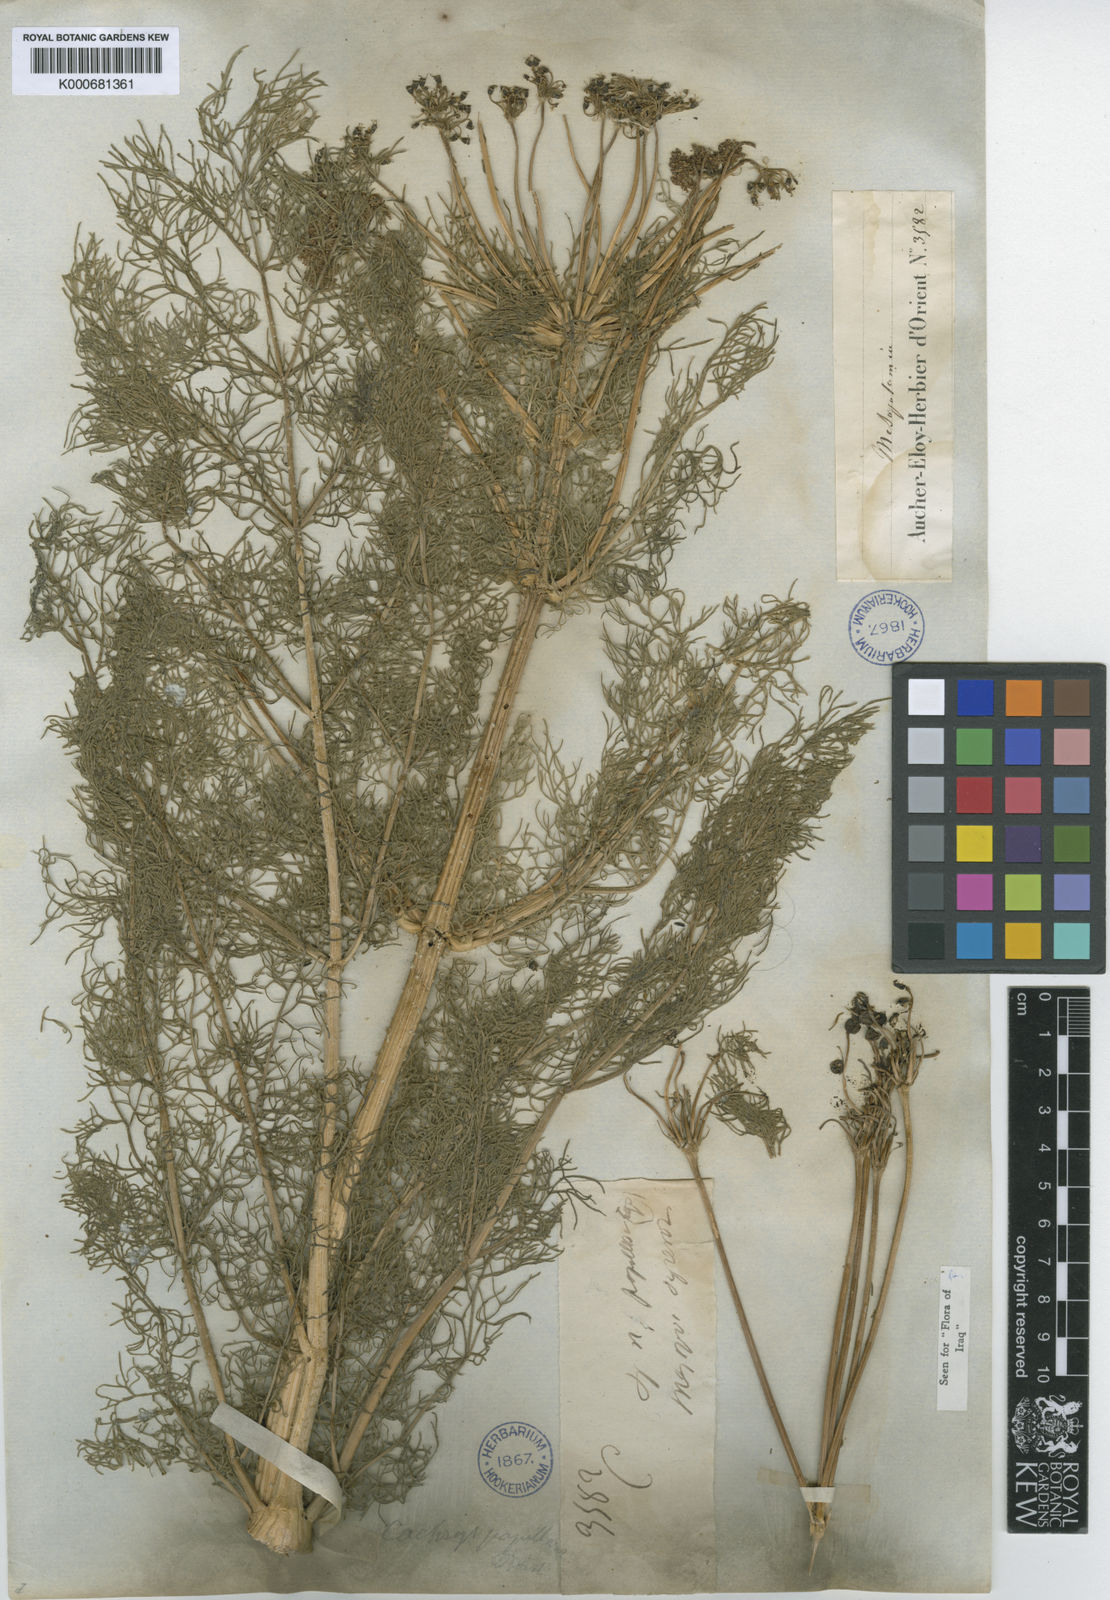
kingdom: Plantae
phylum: Tracheophyta
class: Magnoliopsida
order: Apiales
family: Apiaceae
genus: Psammogeton
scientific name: Psammogeton papillare
